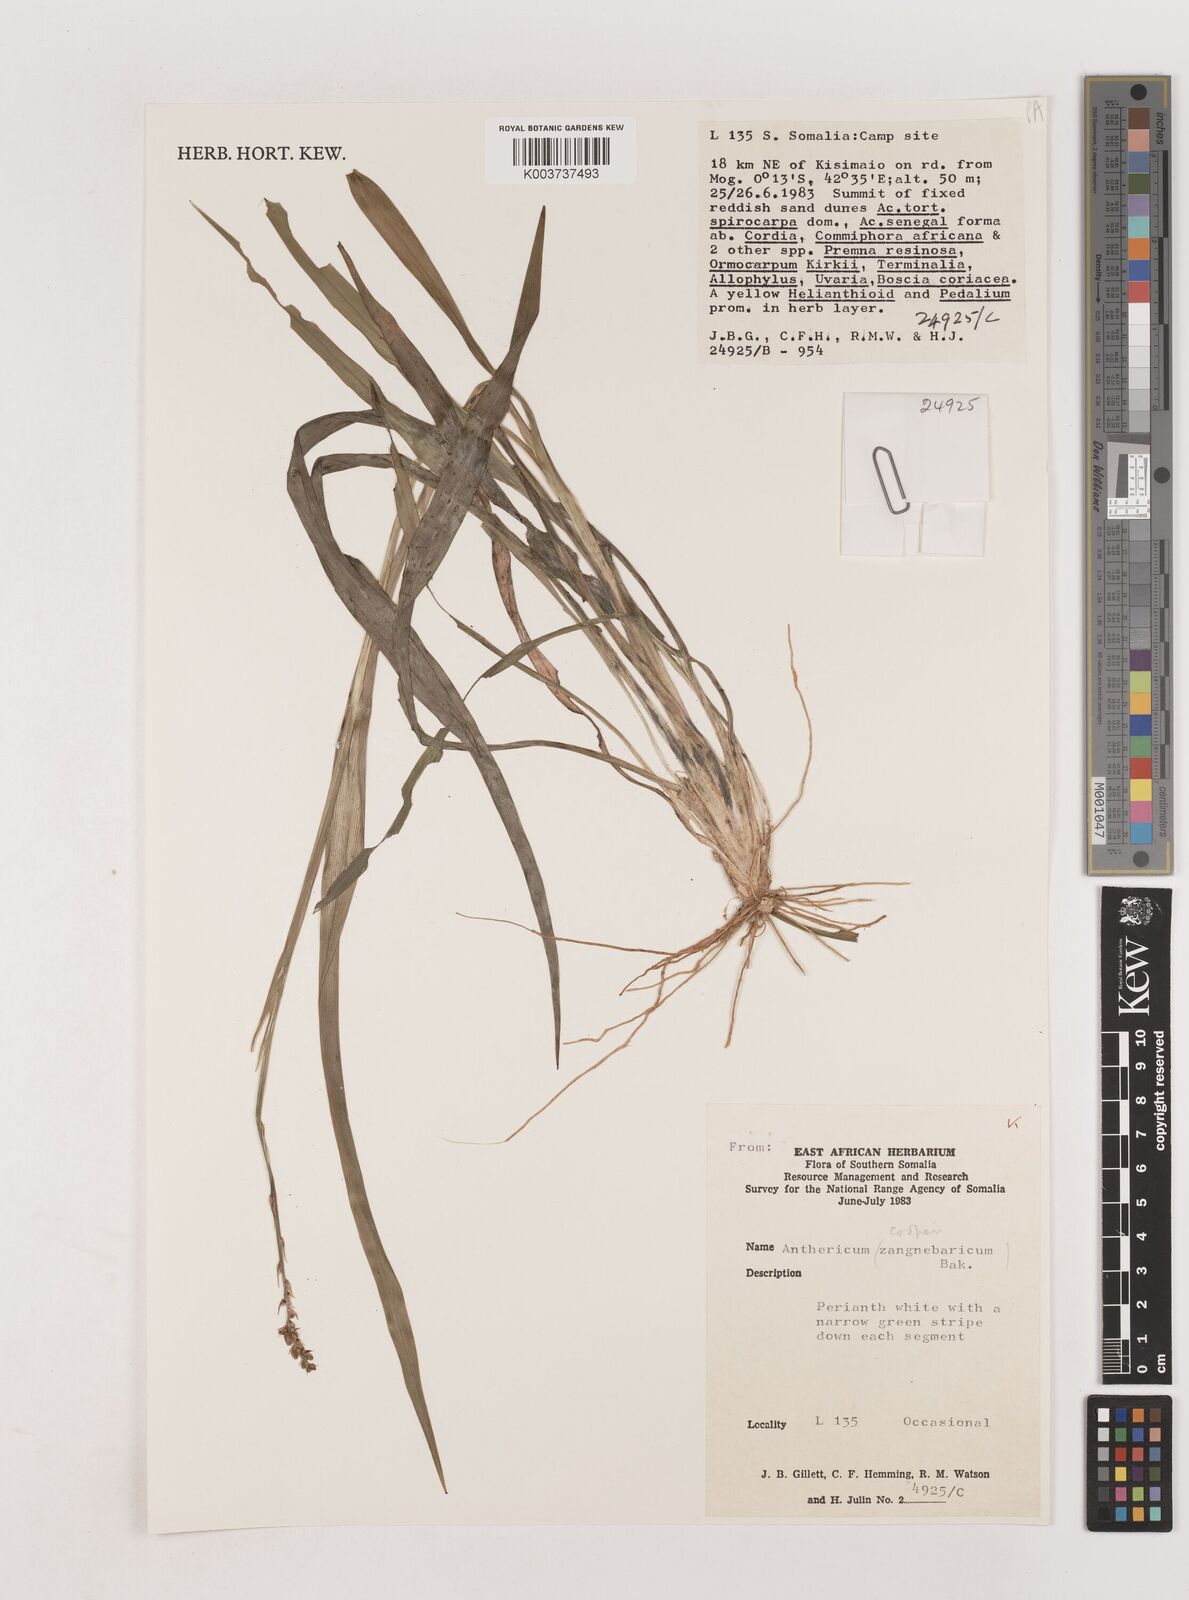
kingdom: Plantae
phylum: Tracheophyta
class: Liliopsida
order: Asparagales
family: Asparagaceae
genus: Chlorophytum
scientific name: Chlorophytum cameronii
